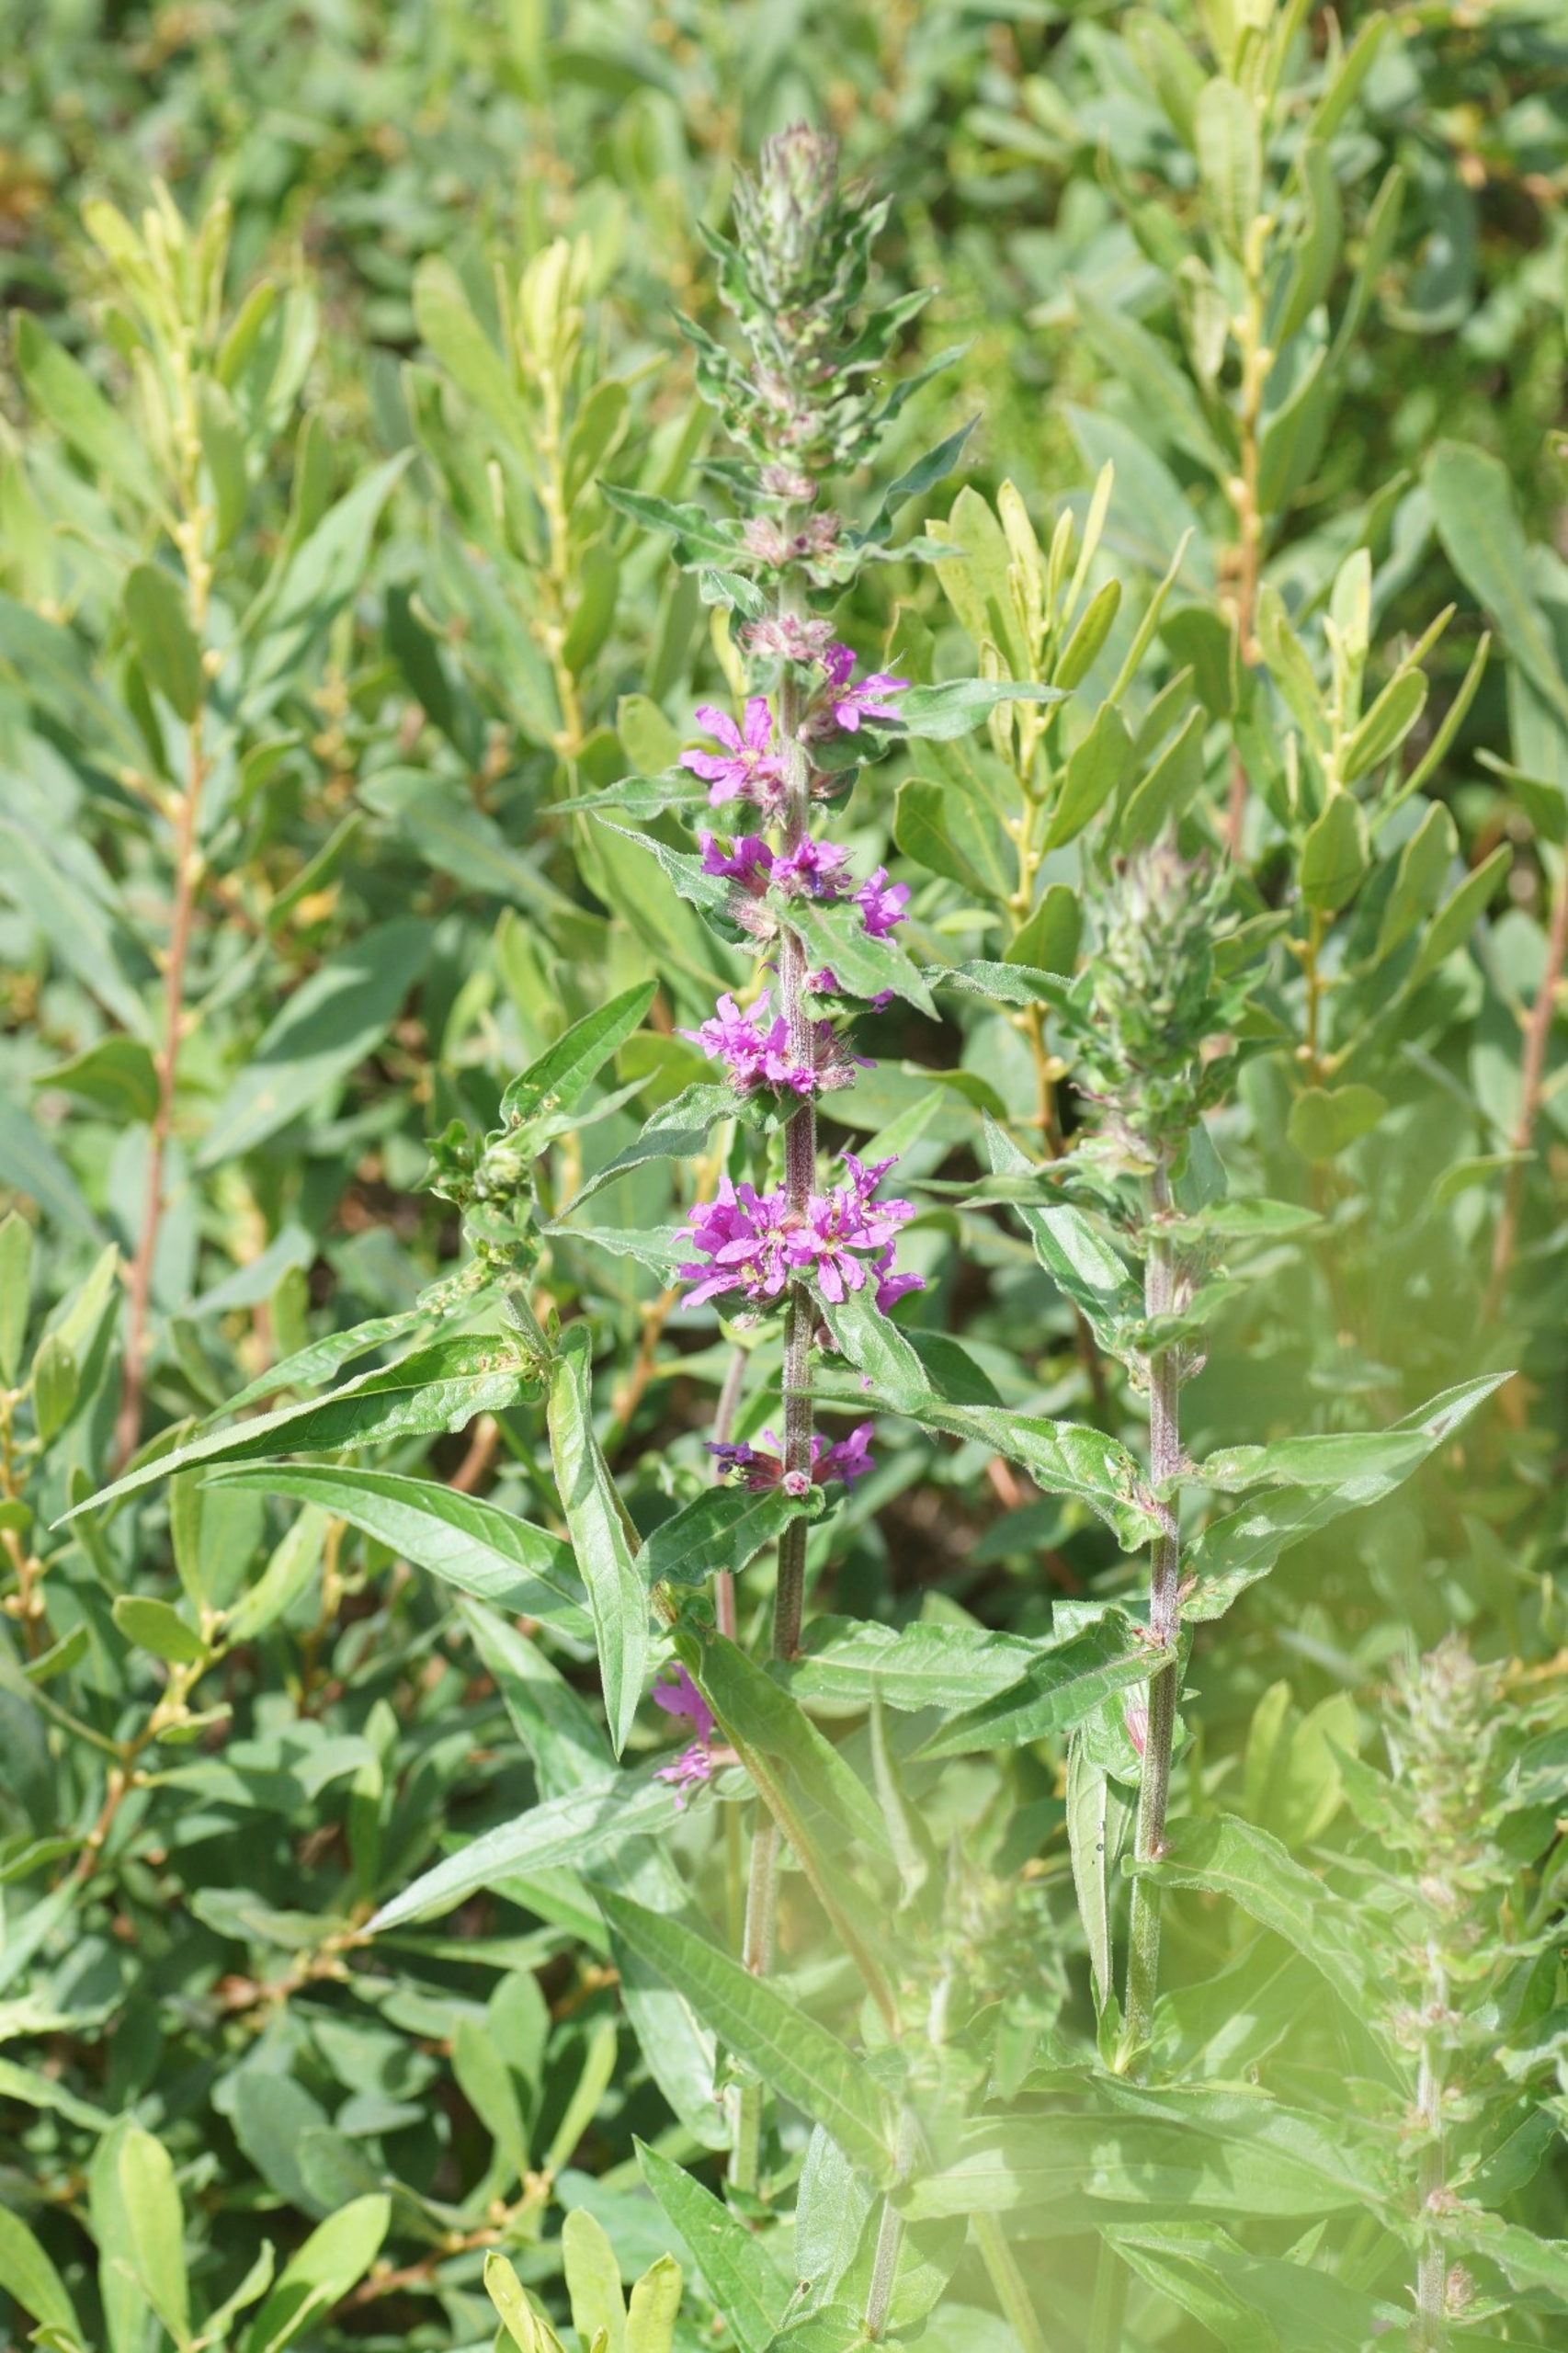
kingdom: Plantae
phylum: Tracheophyta
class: Magnoliopsida
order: Myrtales
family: Lythraceae
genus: Lythrum
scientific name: Lythrum salicaria
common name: Kattehale
